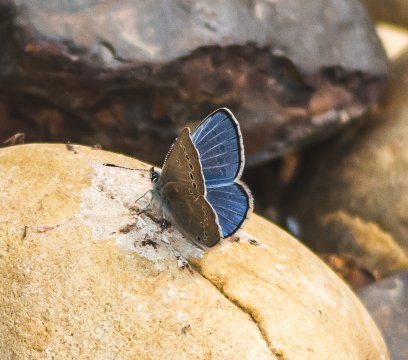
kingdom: Animalia
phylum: Arthropoda
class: Insecta
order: Lepidoptera
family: Lycaenidae
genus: Glaucopsyche
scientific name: Glaucopsyche lygdamus
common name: Silvery Blue
